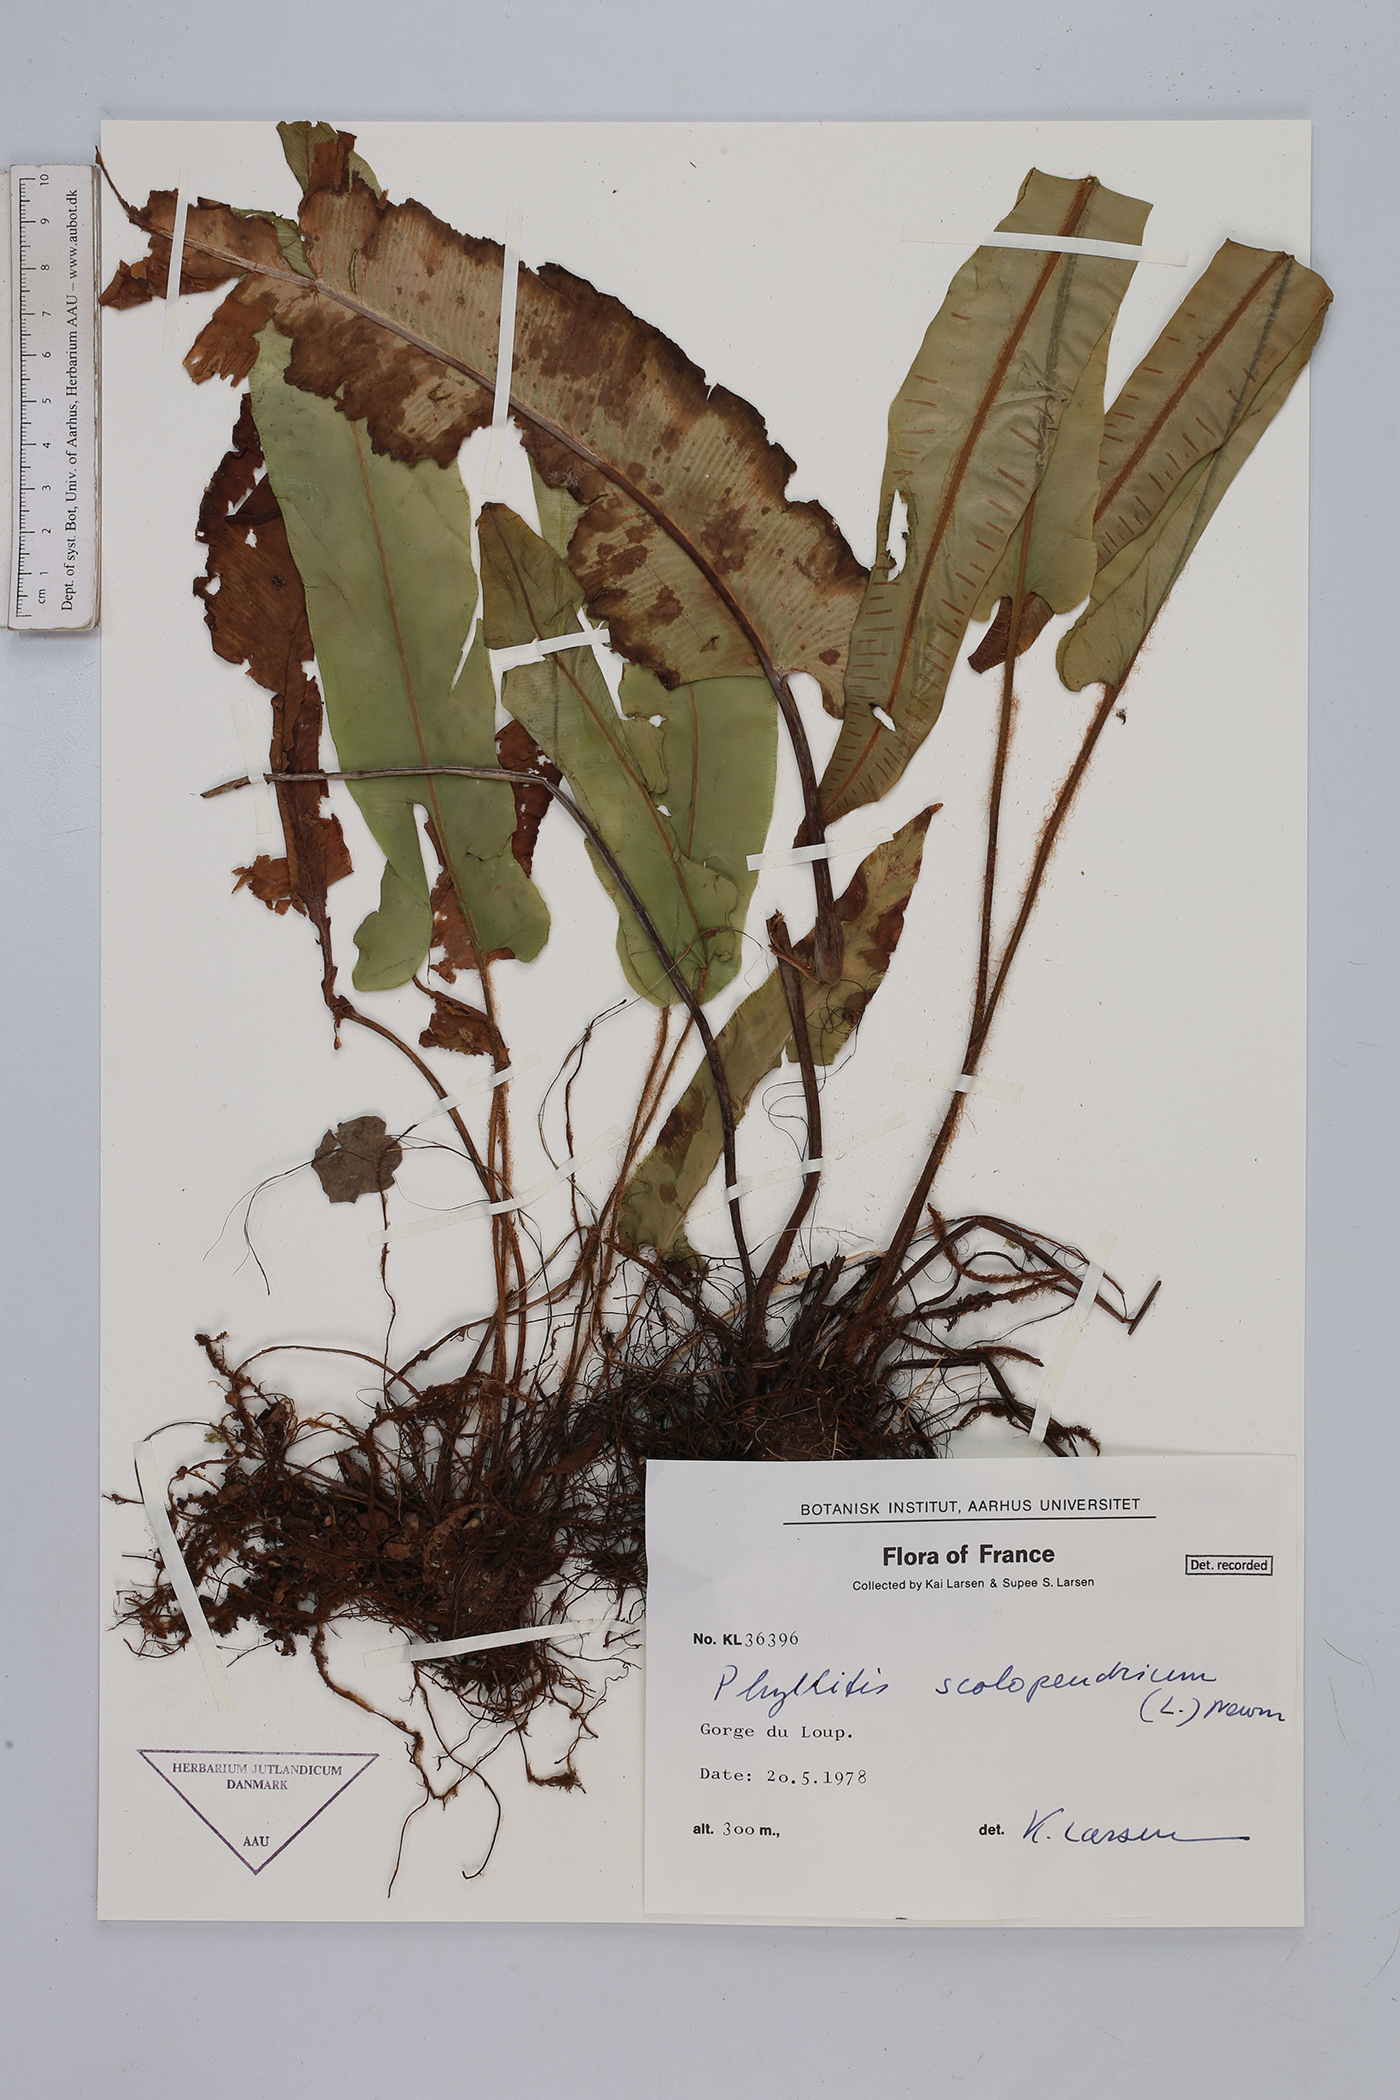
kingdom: Plantae
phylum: Tracheophyta
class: Polypodiopsida
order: Polypodiales
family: Aspleniaceae
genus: Asplenium
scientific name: Asplenium scolopendrium
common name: Hart's-tongue fern
